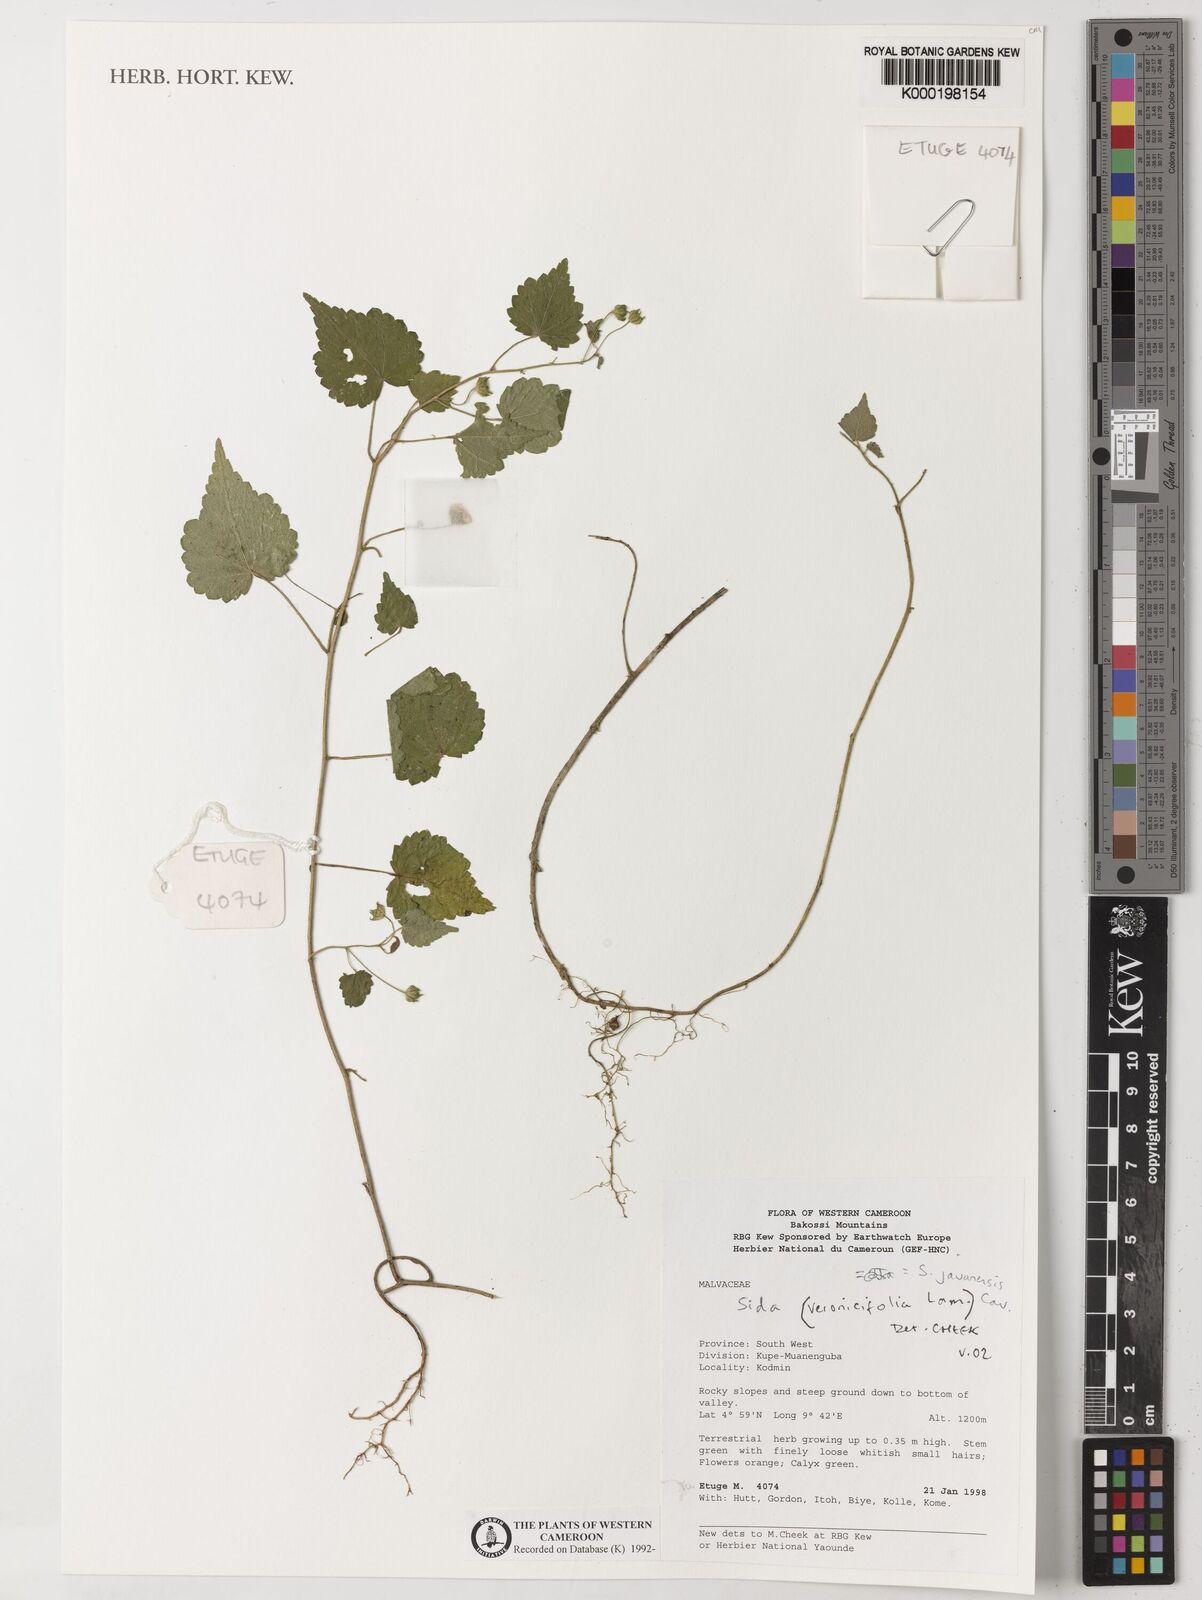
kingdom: Plantae
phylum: Tracheophyta
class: Magnoliopsida
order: Malvales
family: Malvaceae
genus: Sida
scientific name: Sida
